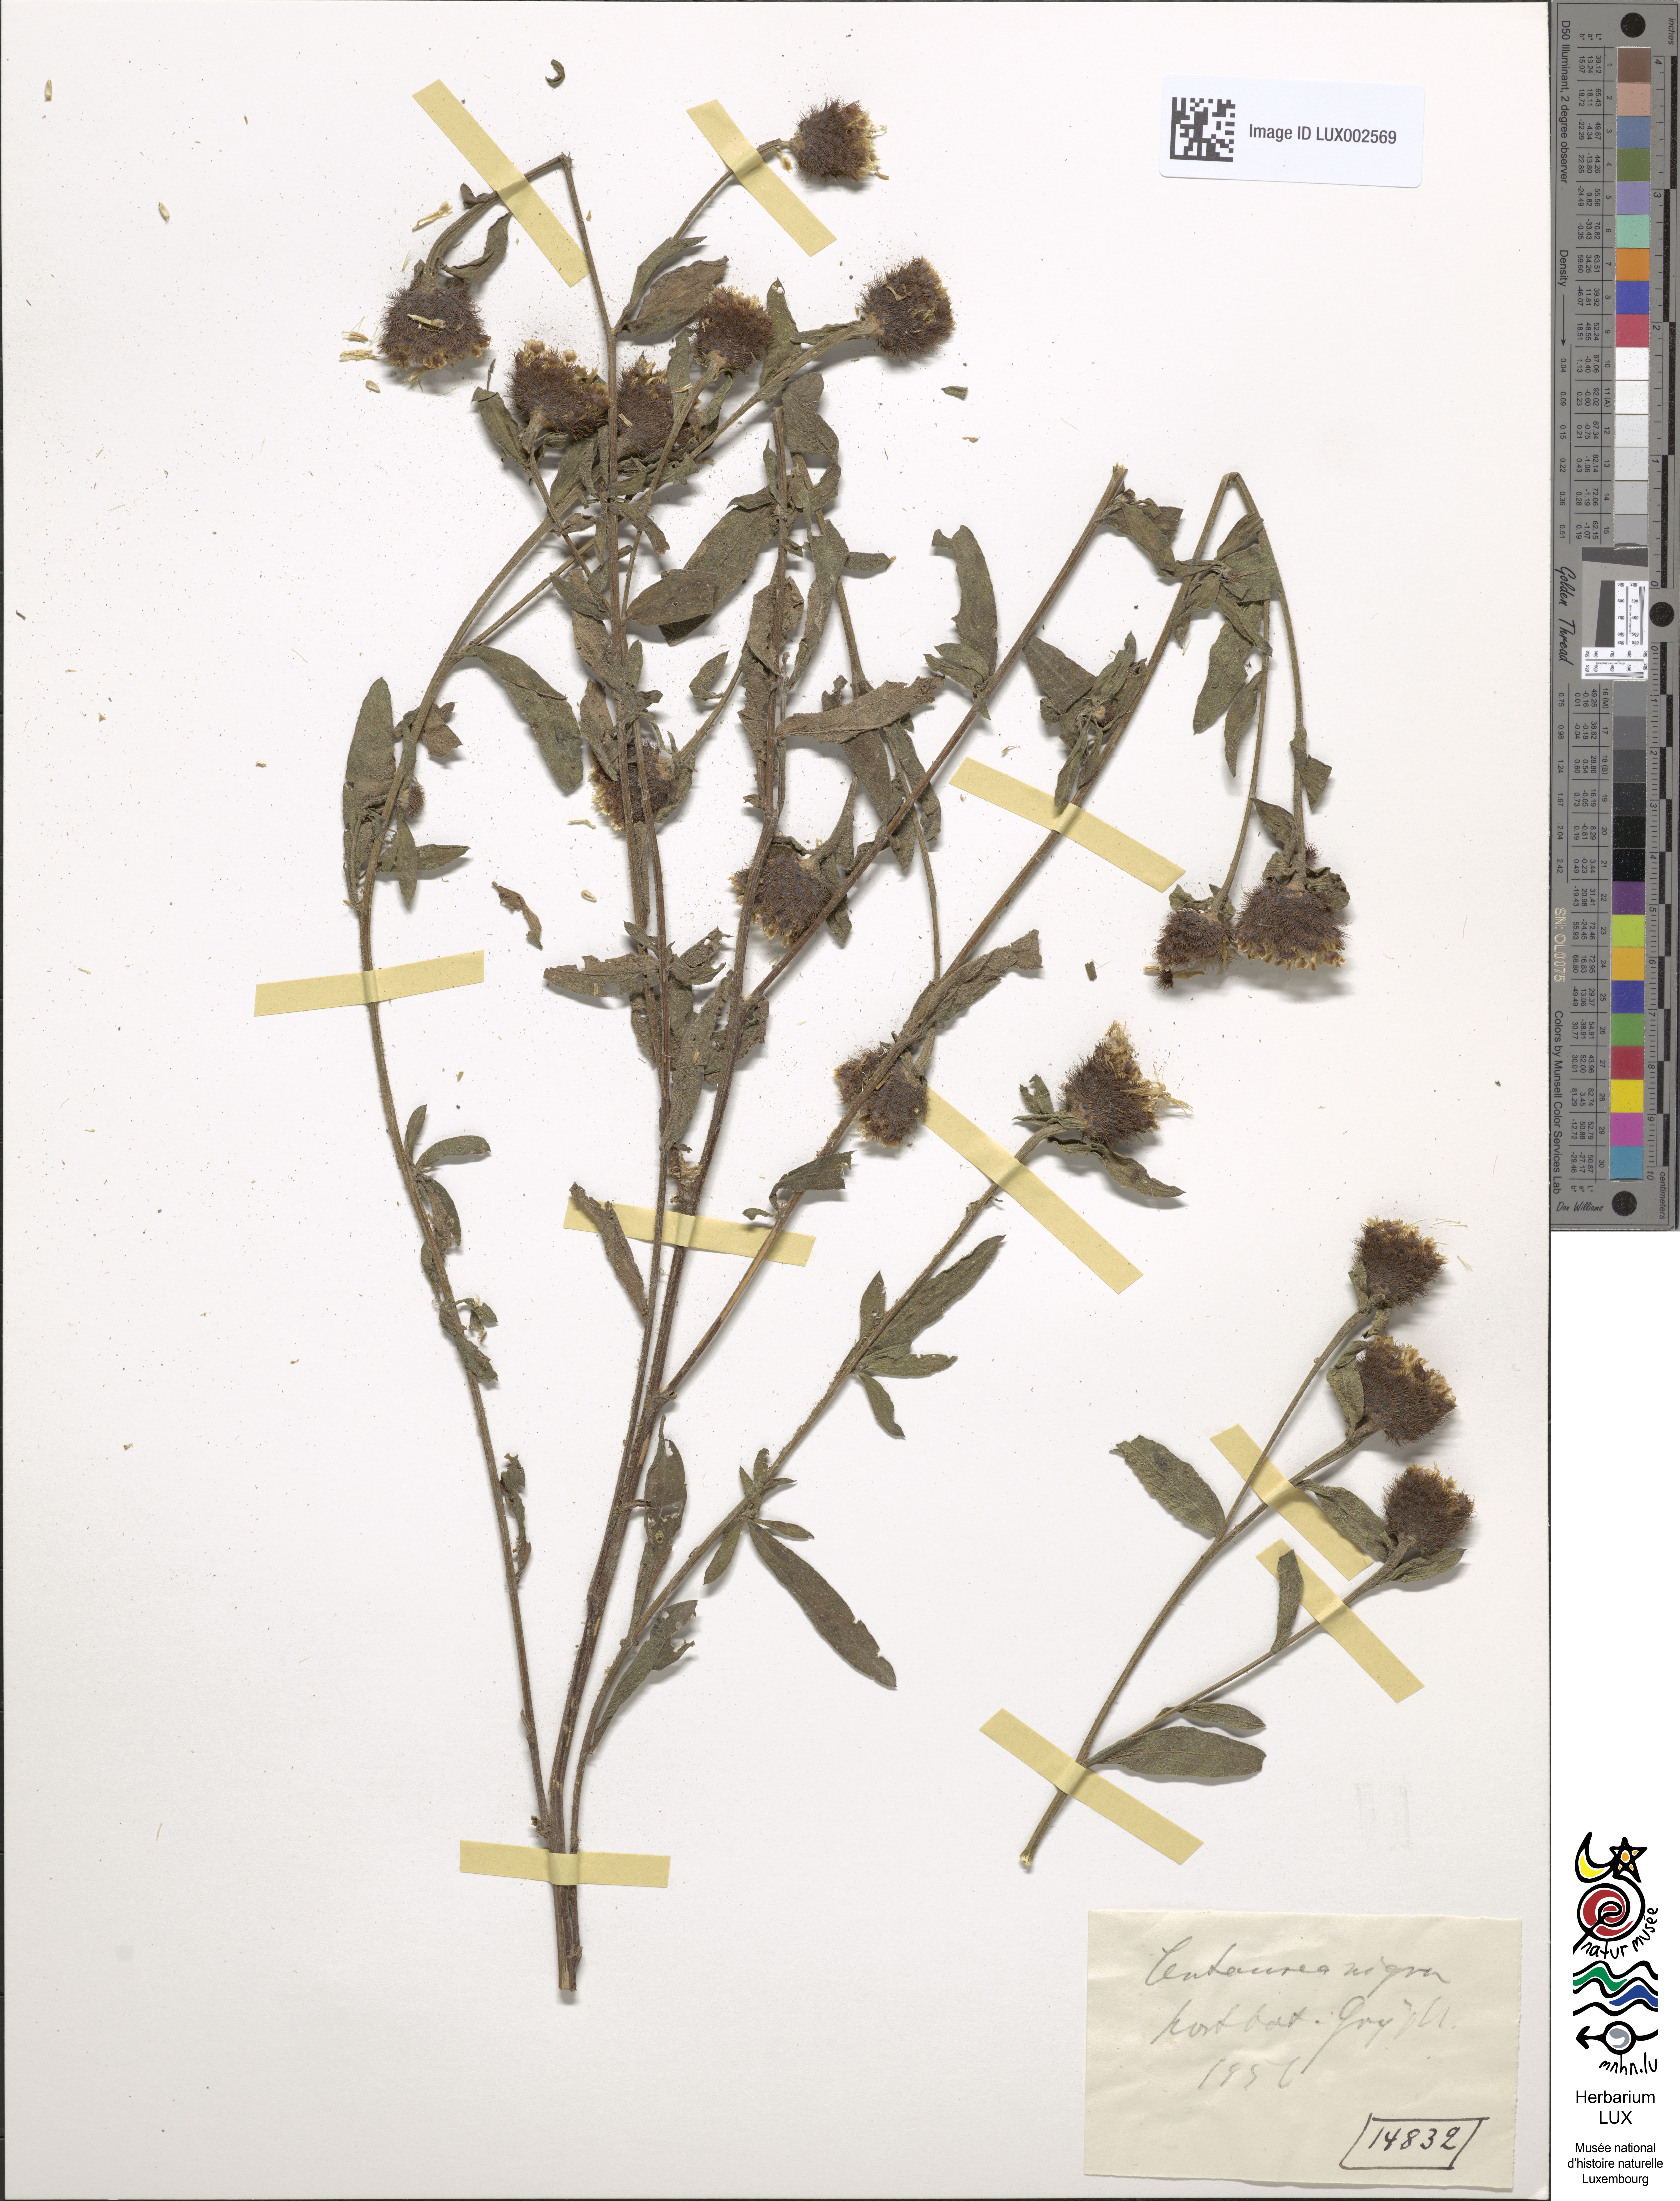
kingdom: Plantae
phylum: Tracheophyta
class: Magnoliopsida
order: Asterales
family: Asteraceae
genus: Centaurea
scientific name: Centaurea nigra
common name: Lesser knapweed
